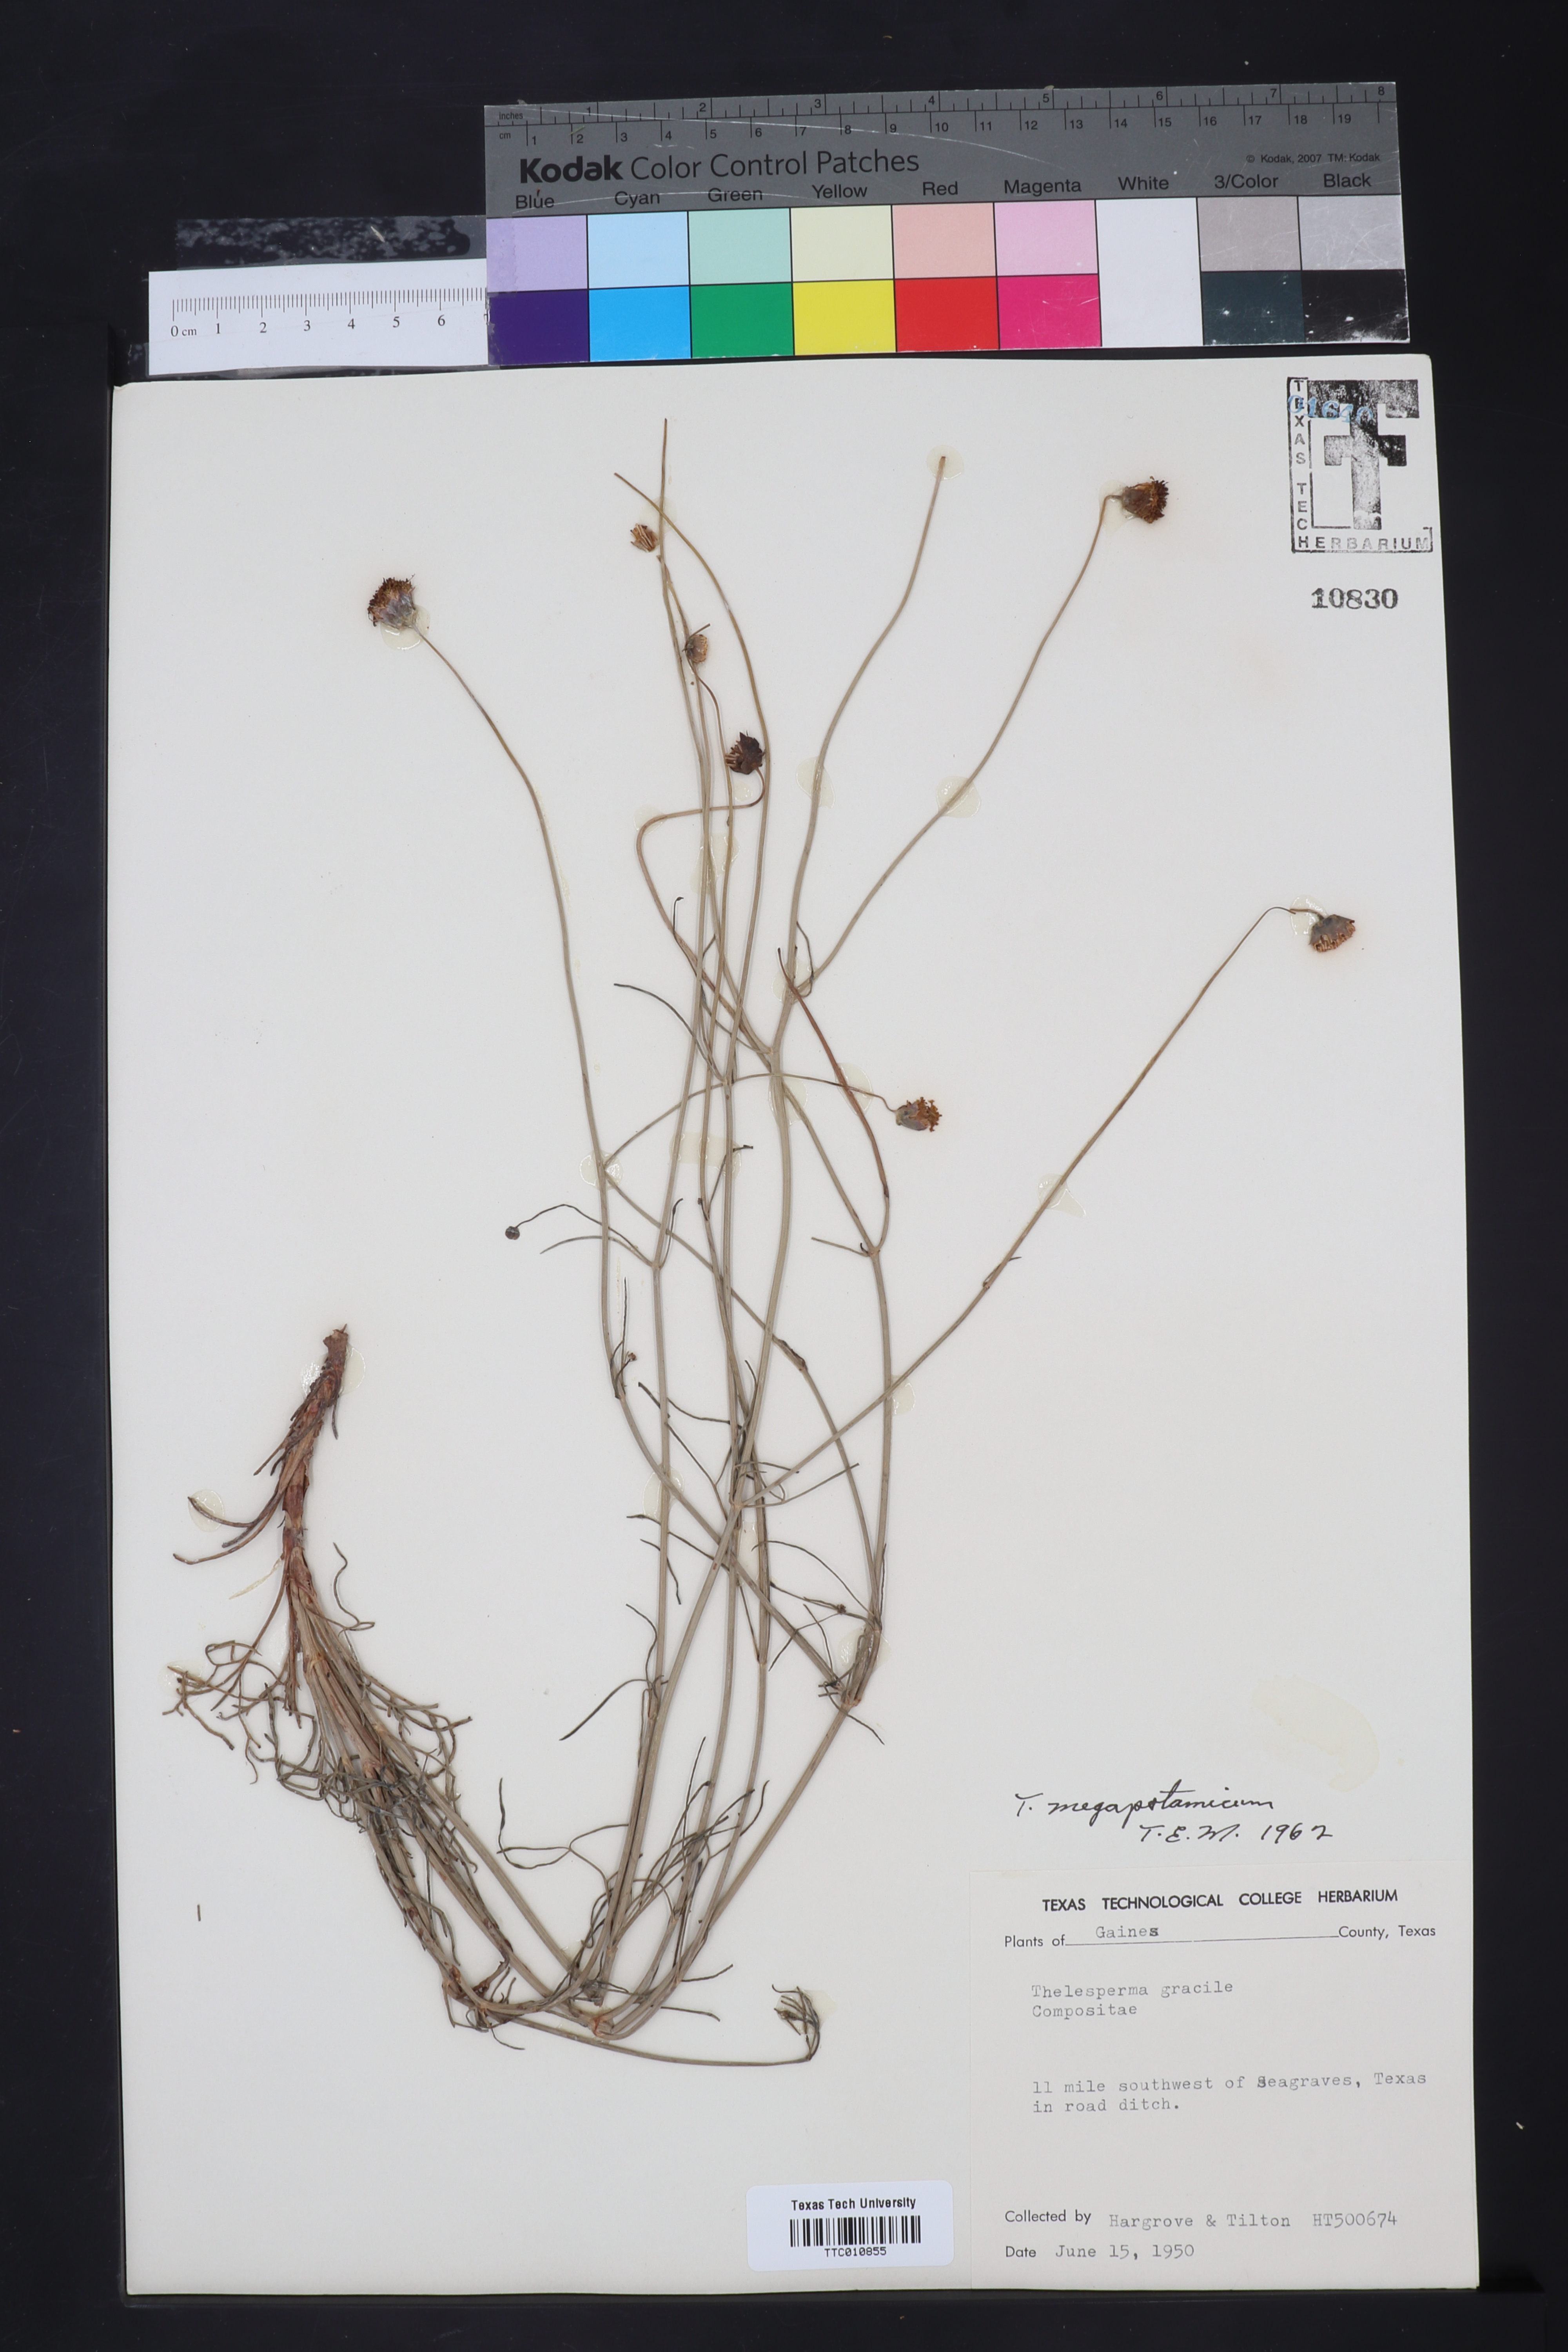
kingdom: Plantae
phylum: Tracheophyta
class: Magnoliopsida
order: Asterales
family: Asteraceae
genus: Thelesperma
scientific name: Thelesperma megapotamicum
